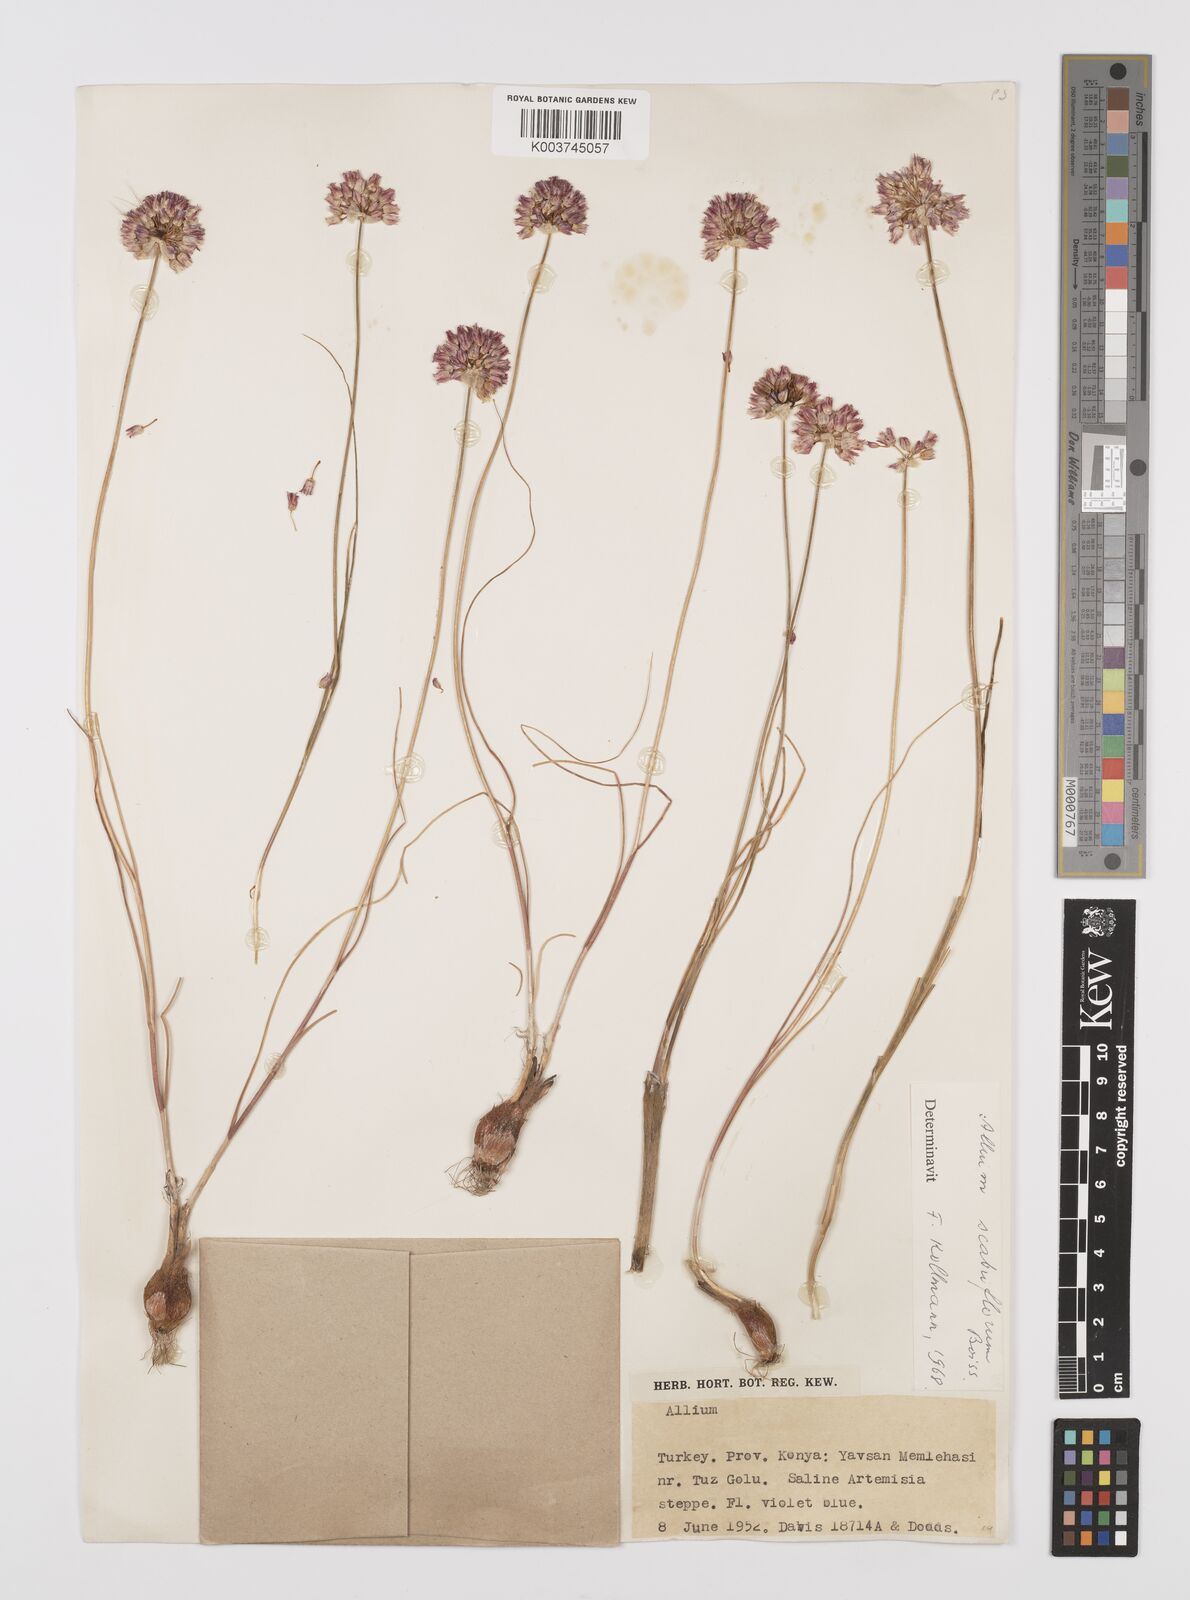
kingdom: Plantae
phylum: Tracheophyta
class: Liliopsida
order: Asparagales
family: Amaryllidaceae
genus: Allium
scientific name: Allium scabriflorum
